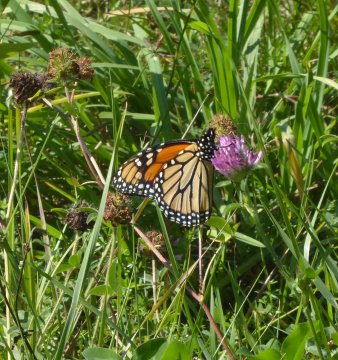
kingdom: Animalia
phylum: Arthropoda
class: Insecta
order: Lepidoptera
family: Nymphalidae
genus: Danaus
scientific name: Danaus plexippus
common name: Monarch
